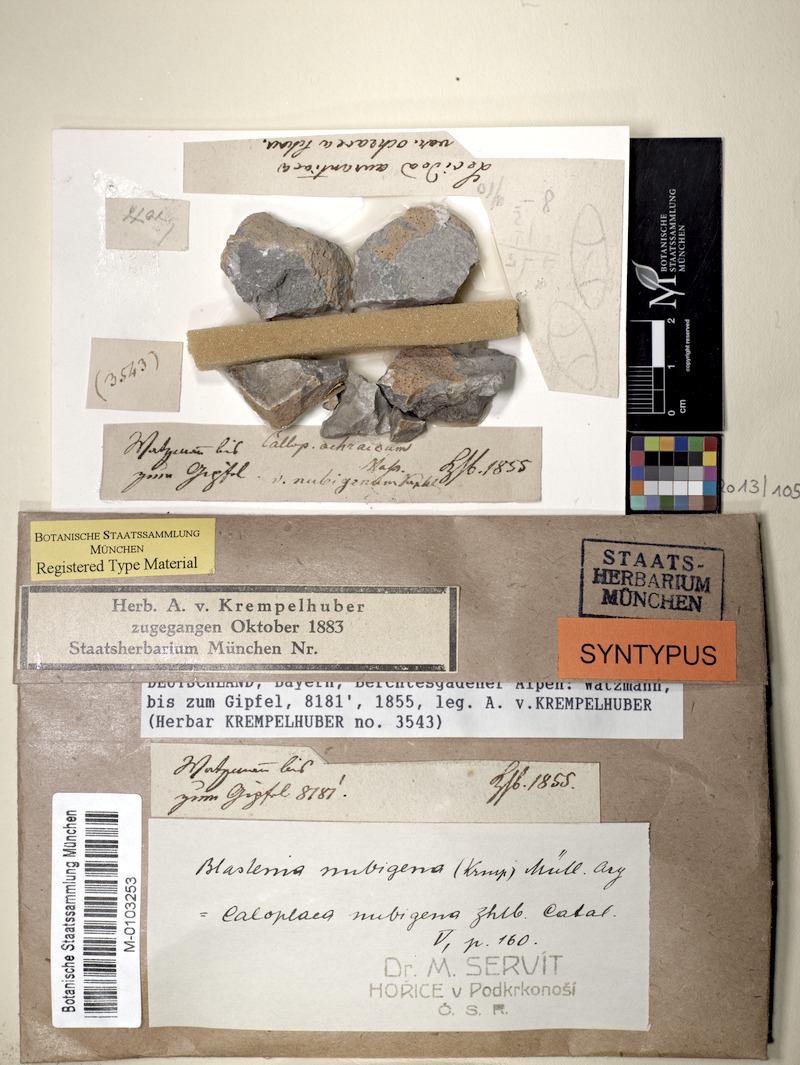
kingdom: Fungi
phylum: Ascomycota
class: Lecanoromycetes
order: Teloschistales
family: Teloschistaceae
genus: Caloplaca
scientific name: Caloplaca nubigena
